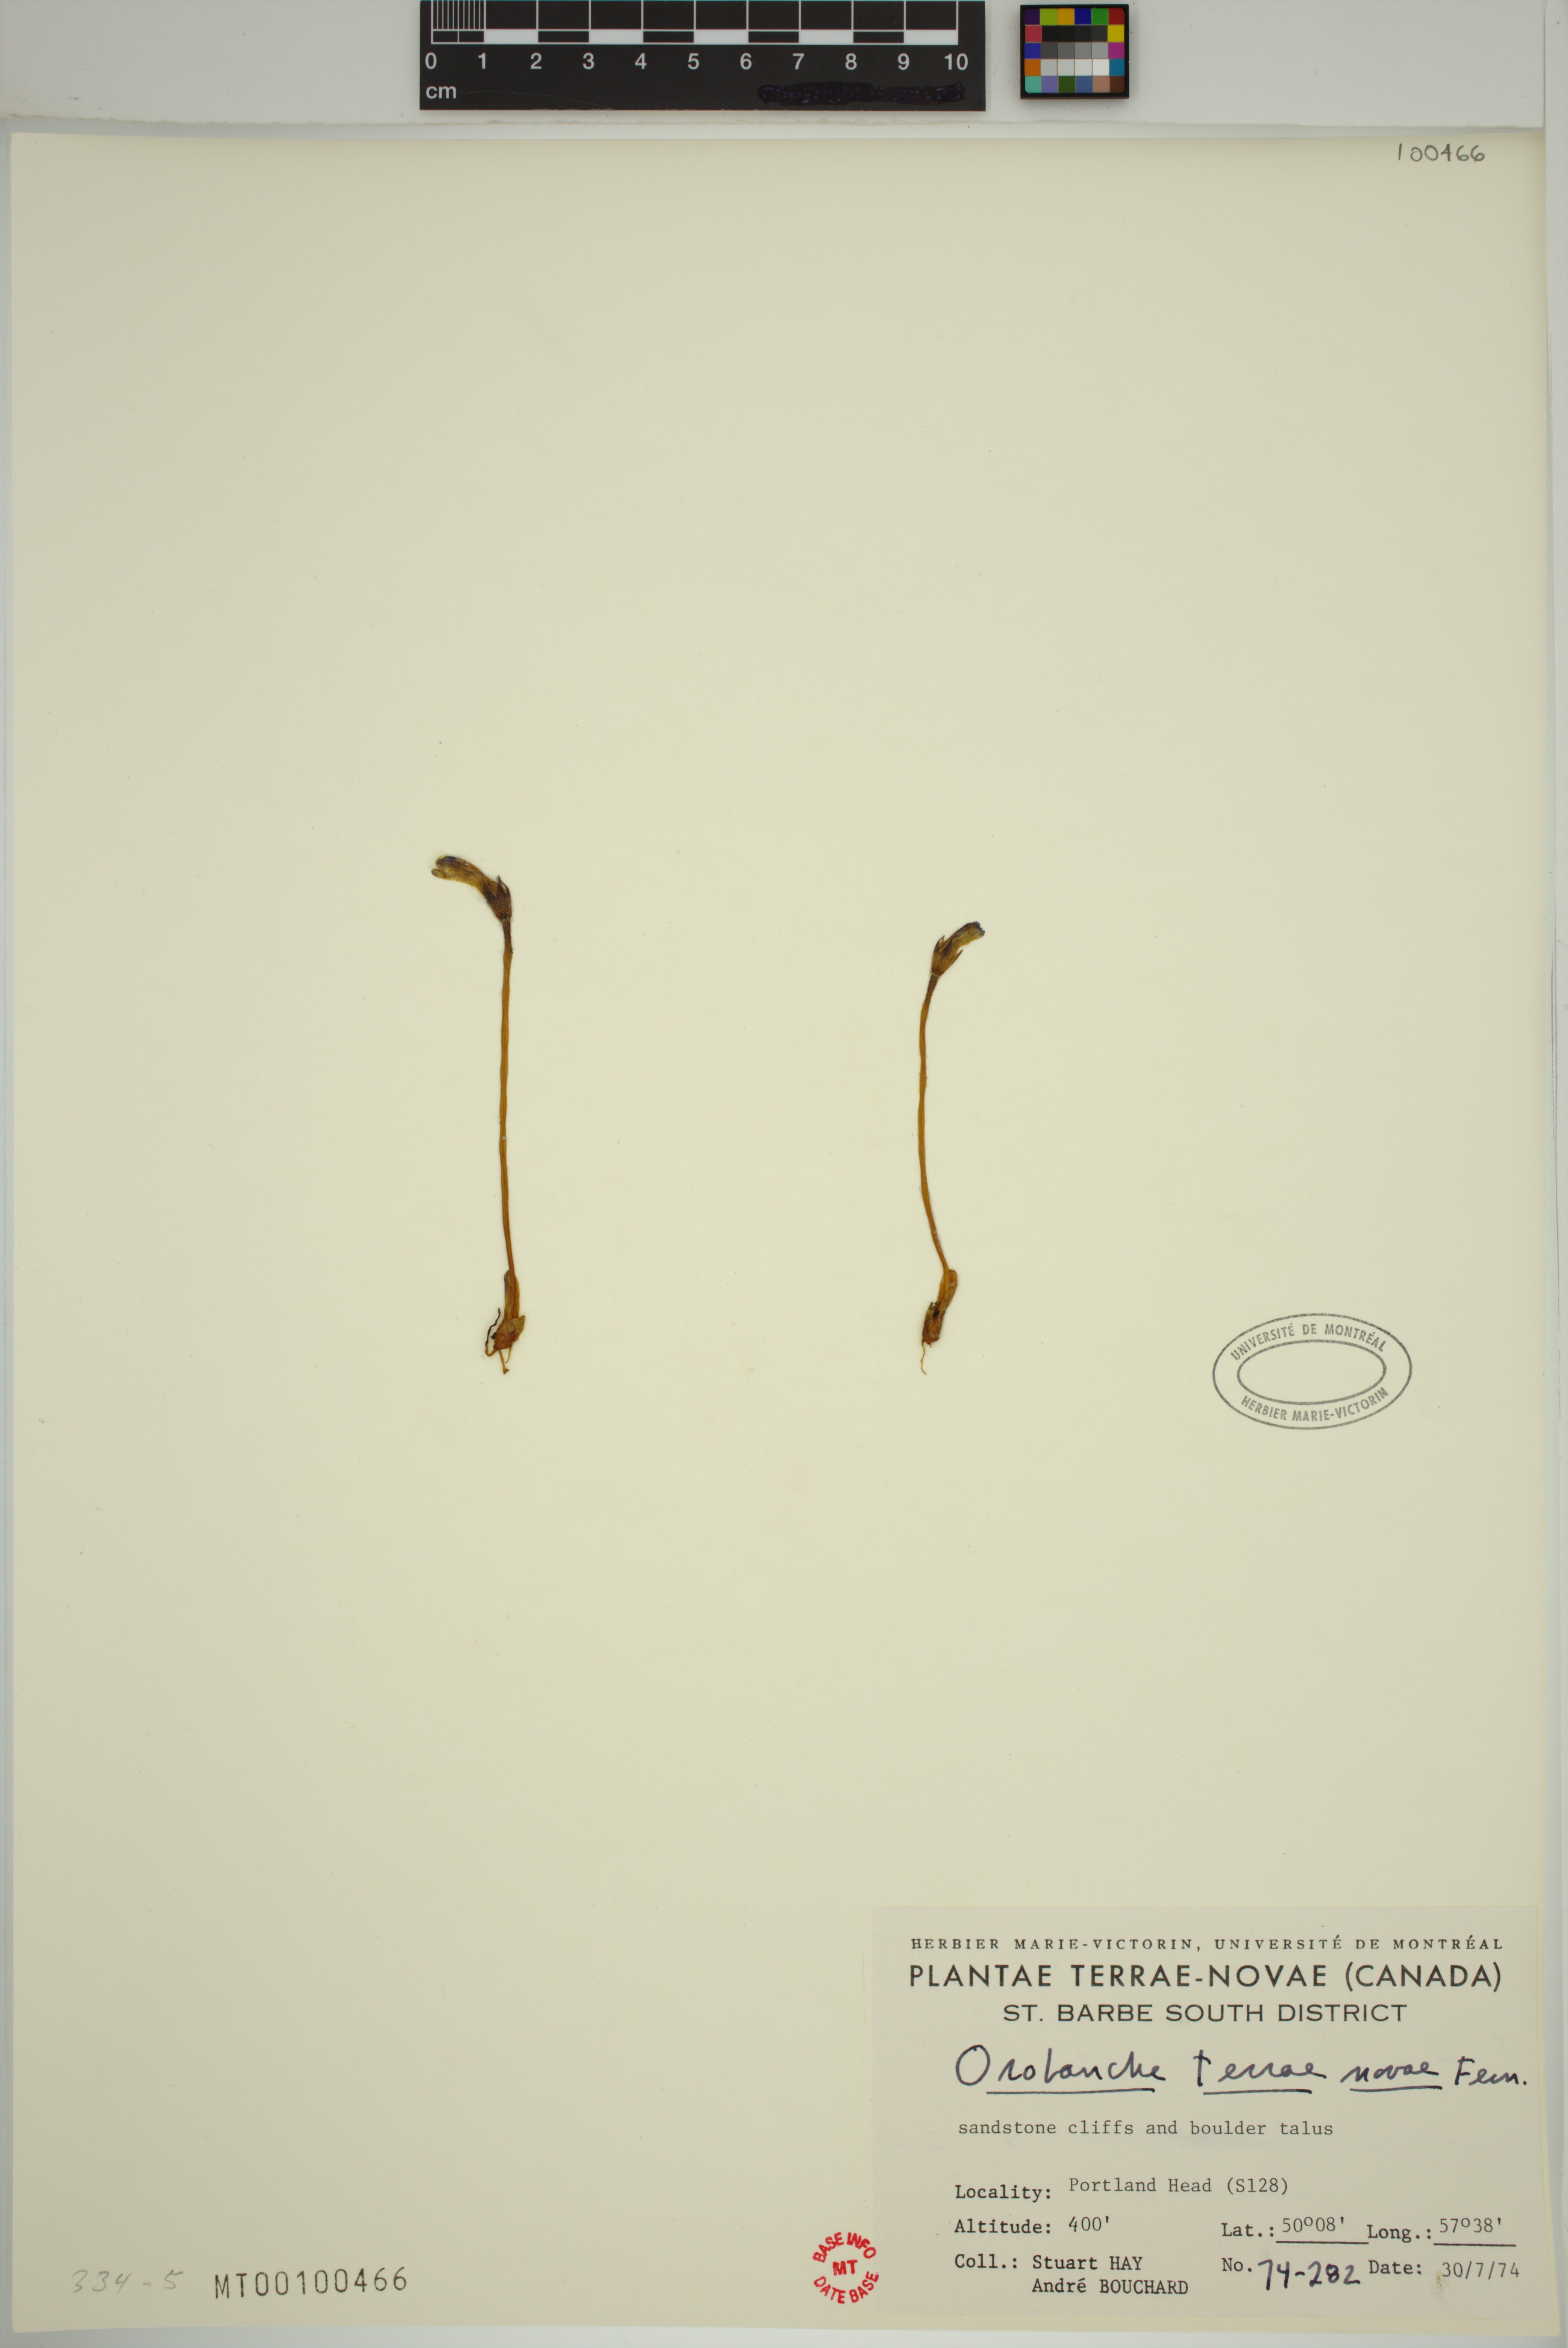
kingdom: Plantae
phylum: Tracheophyta
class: Magnoliopsida
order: Lamiales
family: Orobanchaceae
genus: Aphyllon
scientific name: Aphyllon uniflorum
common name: One-flowered broomrape
